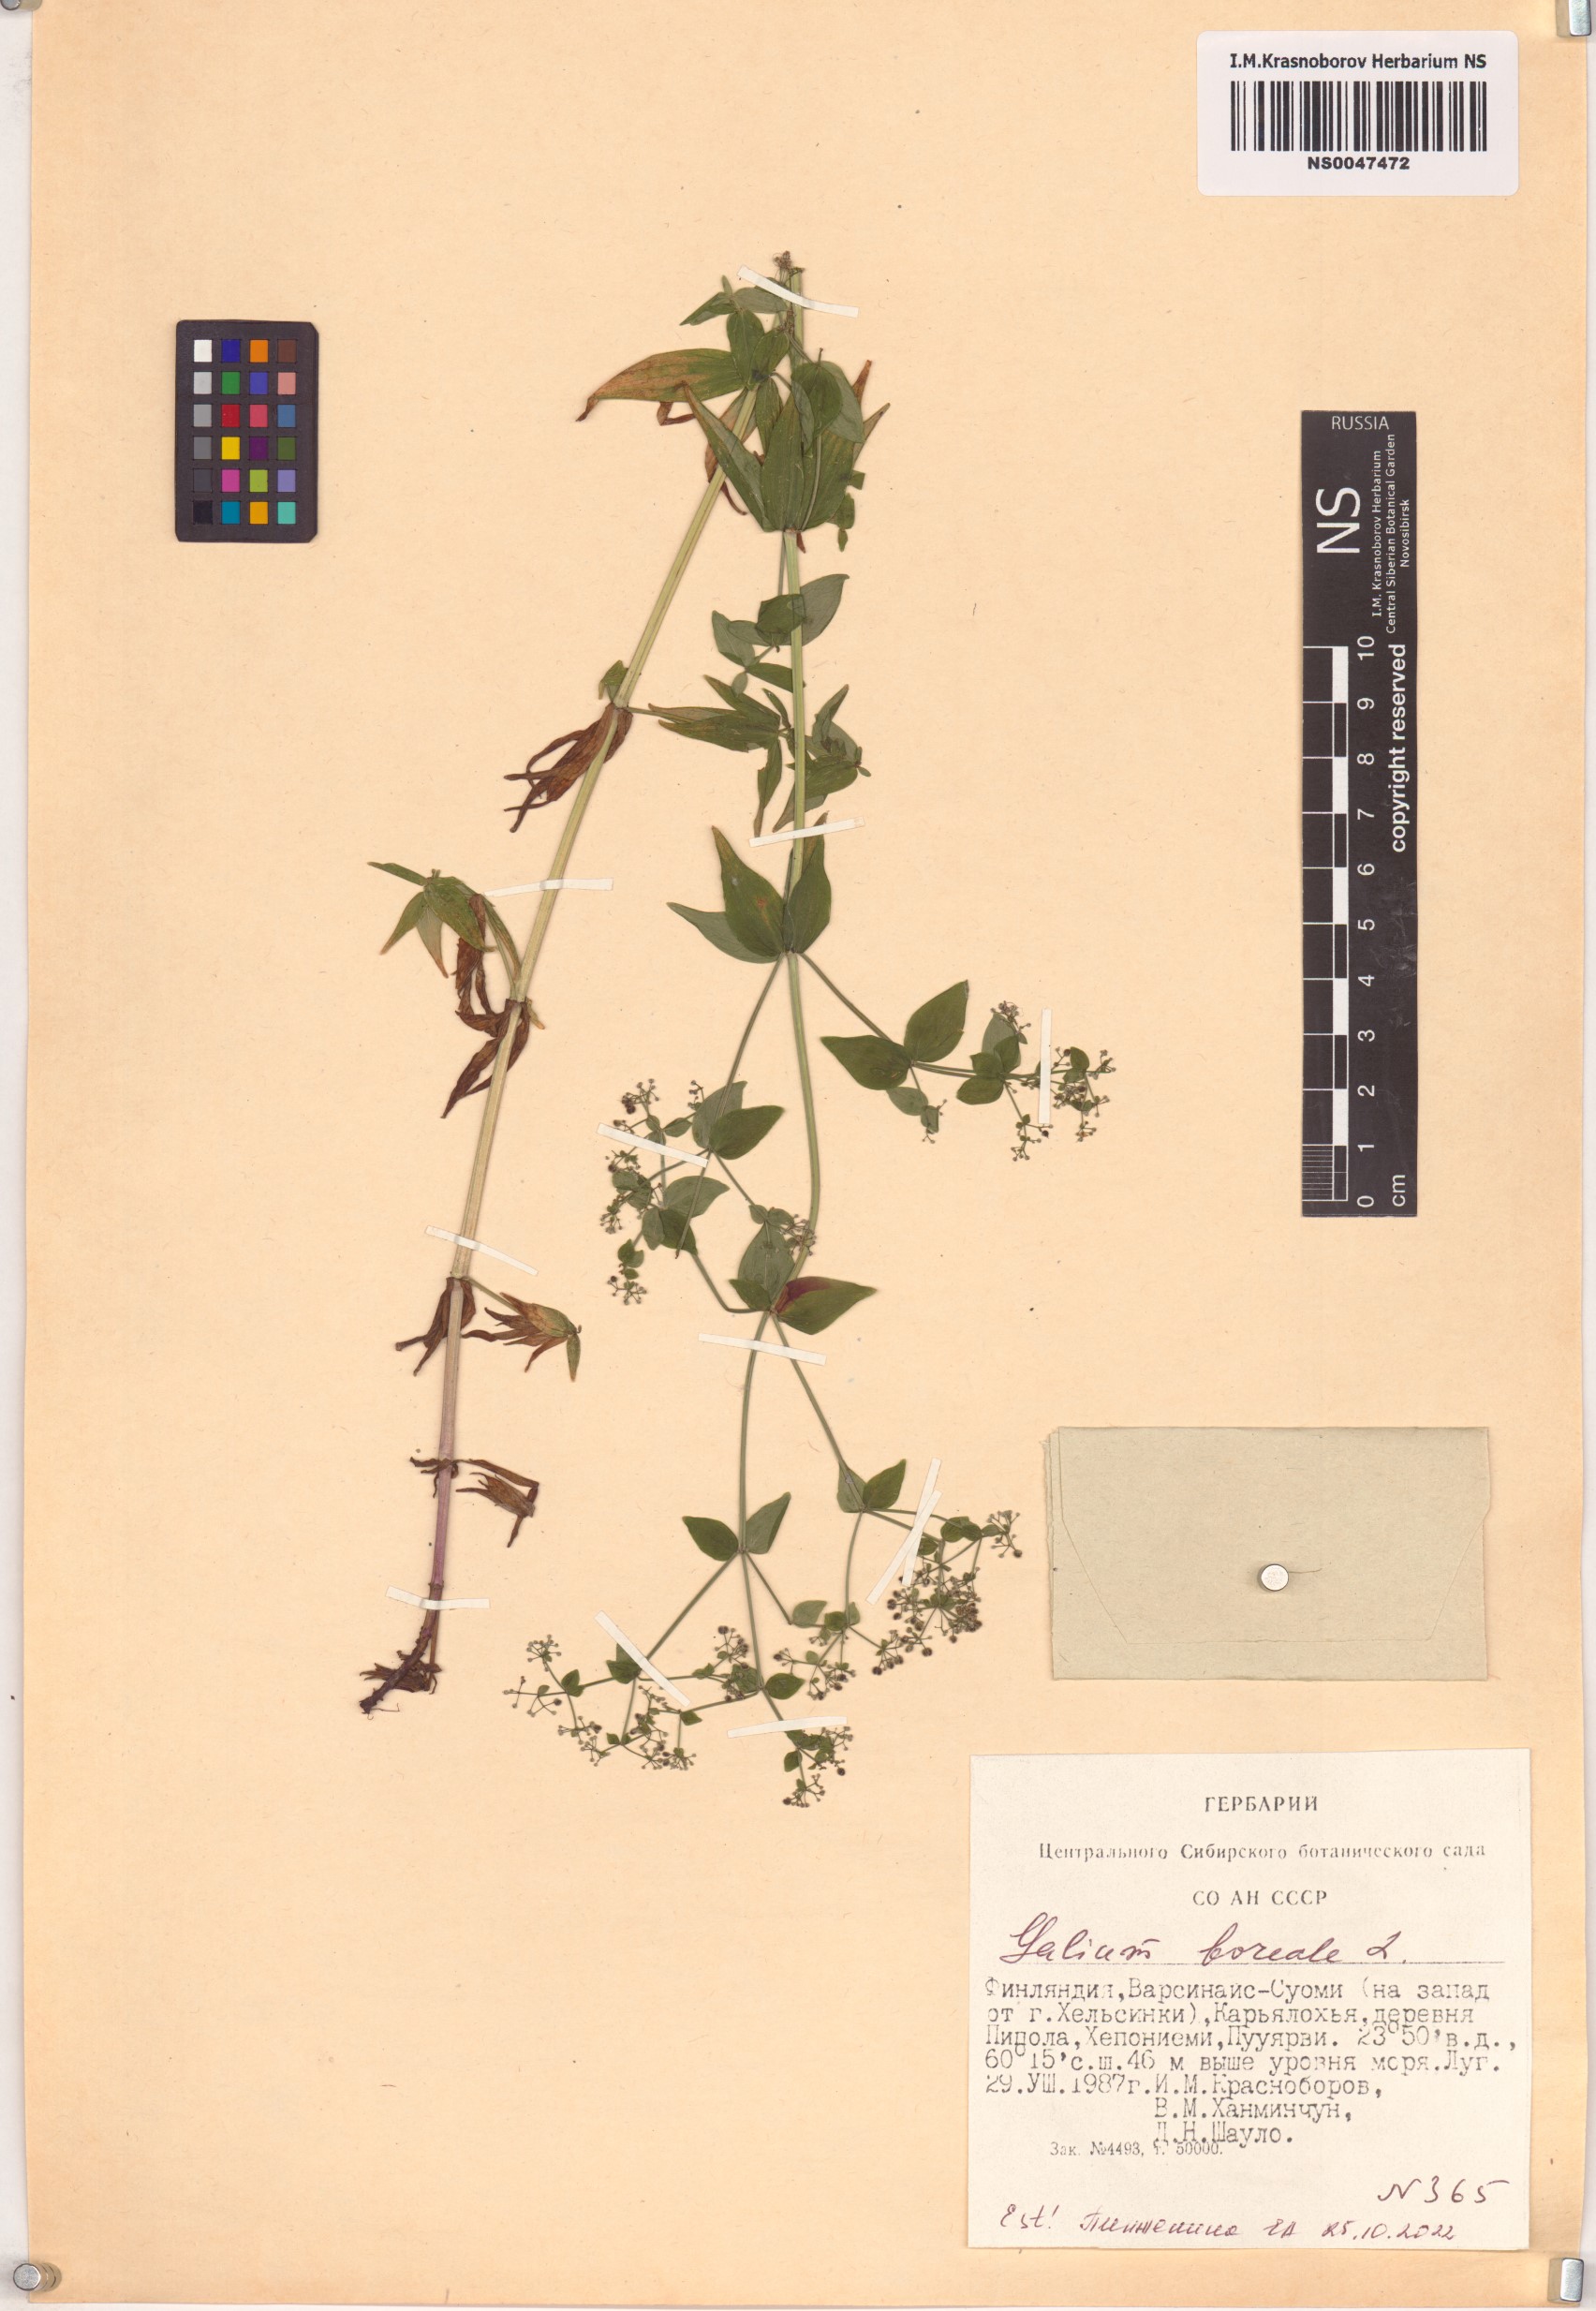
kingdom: Plantae
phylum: Tracheophyta
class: Magnoliopsida
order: Gentianales
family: Rubiaceae
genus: Galium
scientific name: Galium boreale
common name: Northern bedstraw
